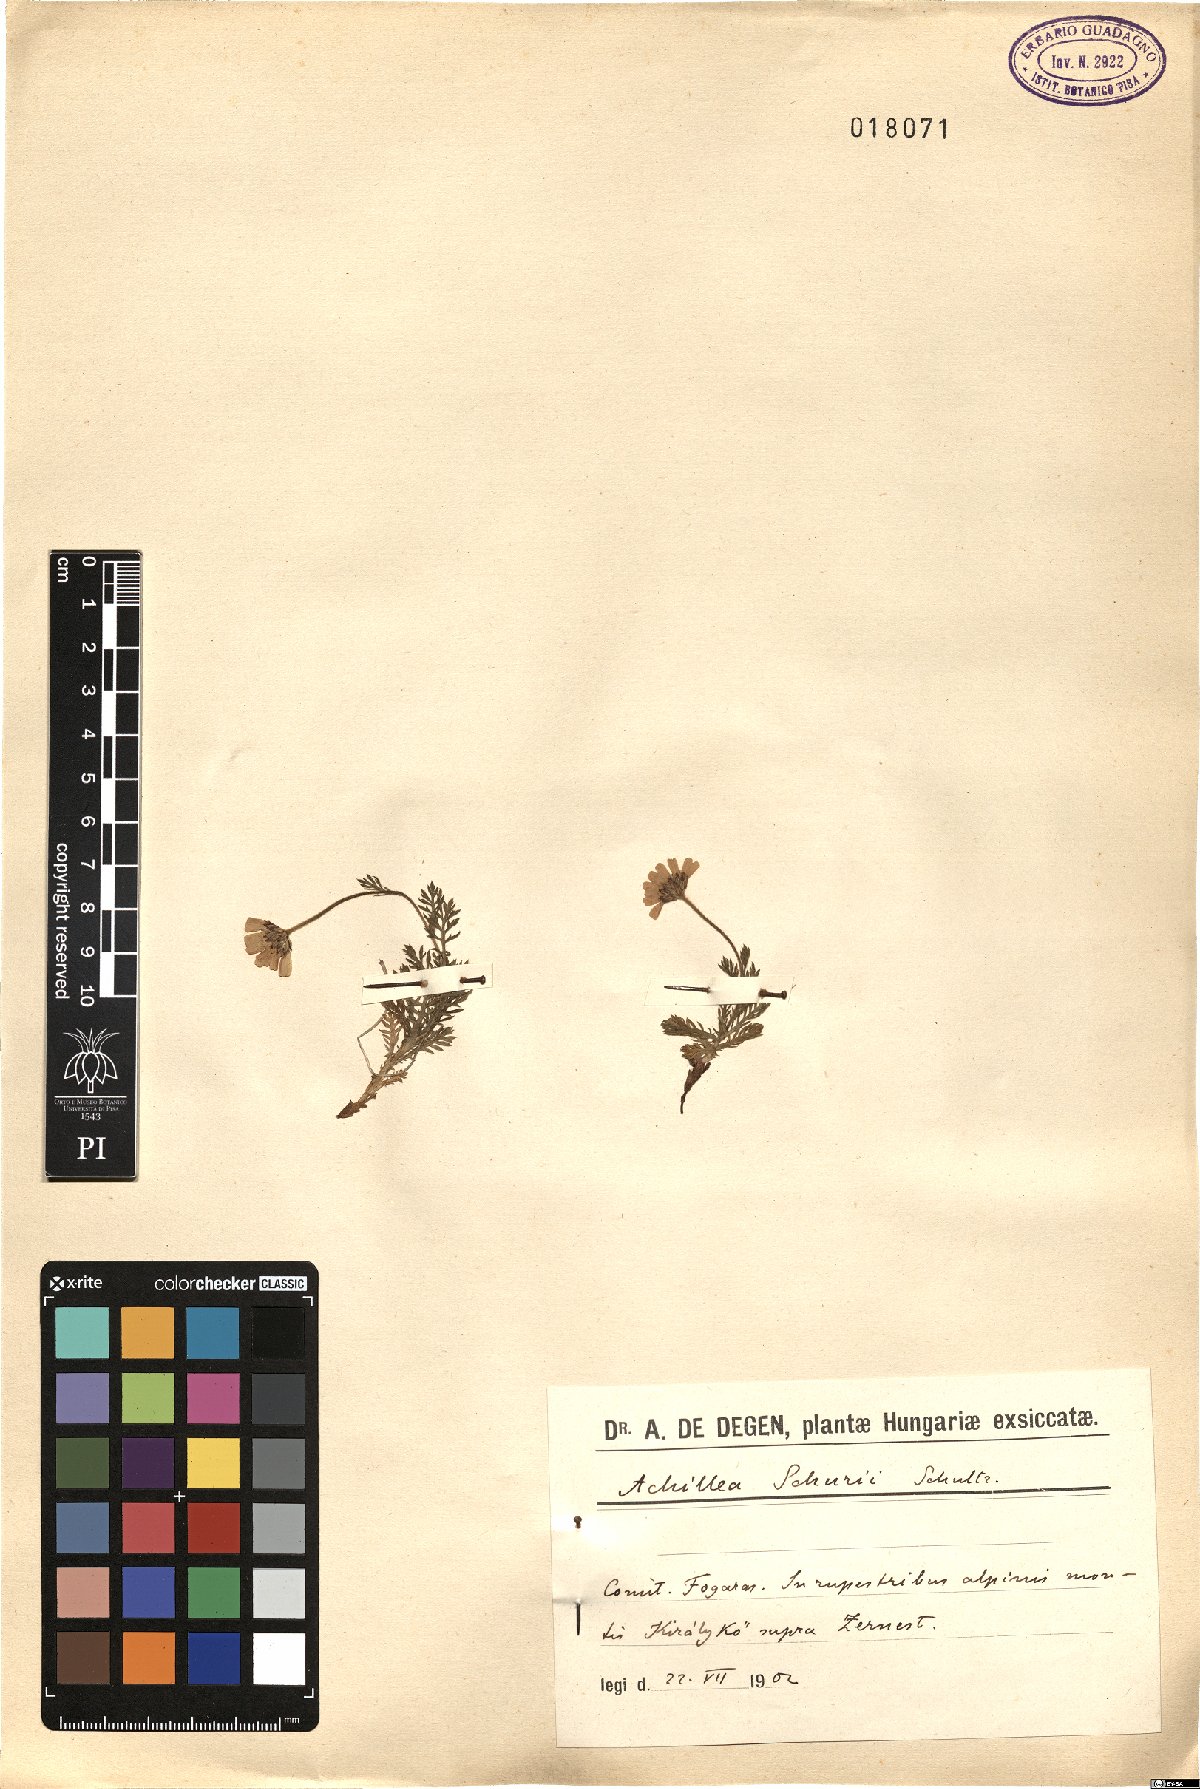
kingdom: Plantae
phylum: Tracheophyta
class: Magnoliopsida
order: Asterales
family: Asteraceae
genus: Achillea
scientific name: Achillea oxyloba
